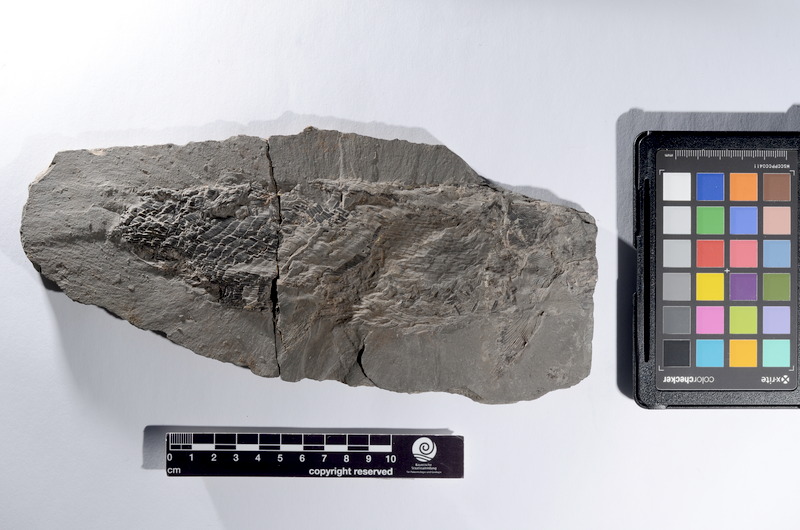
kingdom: Animalia
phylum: Chordata
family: Ptycholepididae
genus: Ptycholepis
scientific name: Ptycholepis bollensis
